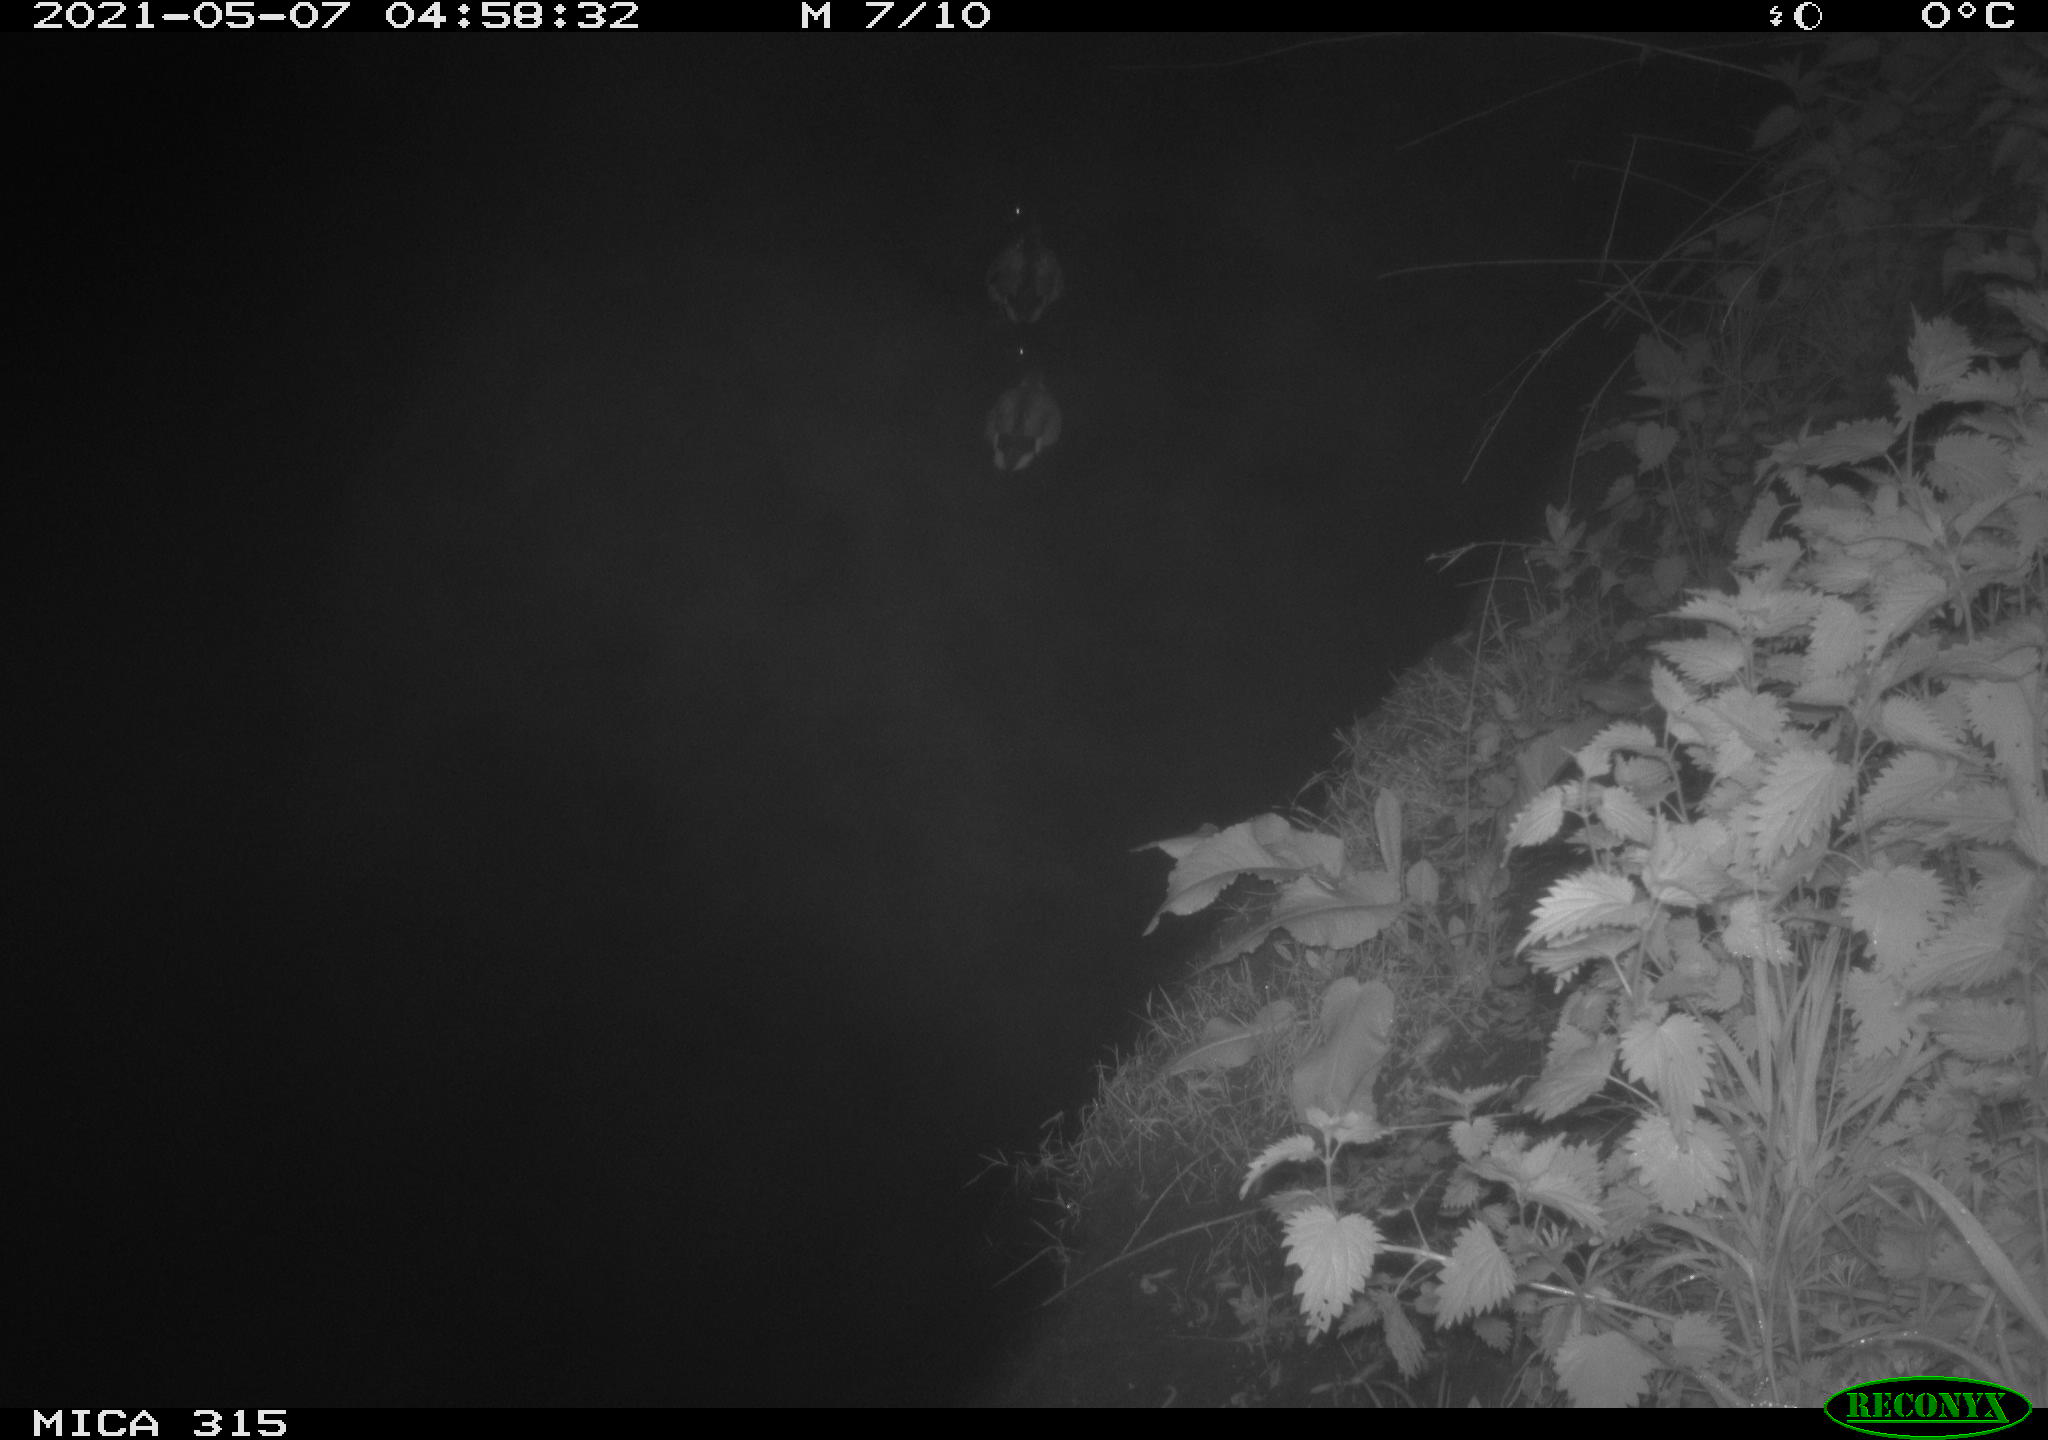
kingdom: Animalia
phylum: Chordata
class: Aves
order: Anseriformes
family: Anatidae
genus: Anas
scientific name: Anas
